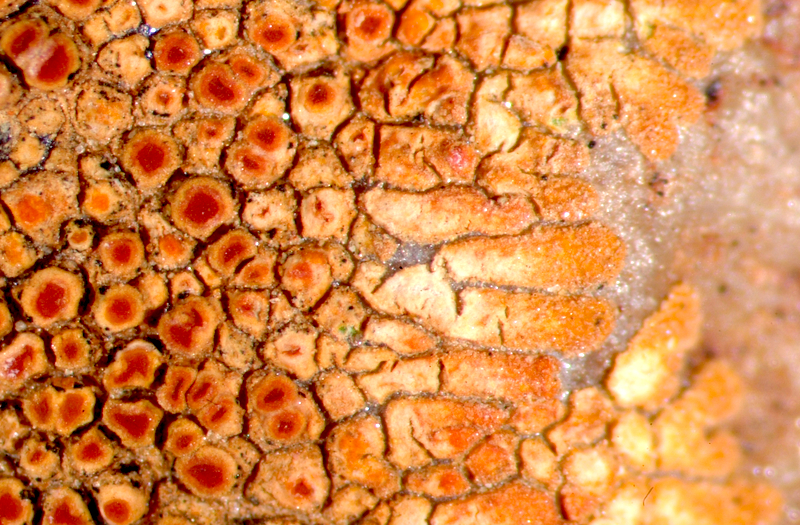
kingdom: Fungi
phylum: Ascomycota
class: Lecanoromycetes
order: Teloschistales
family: Teloschistaceae
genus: Caloplaca
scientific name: Caloplaca
